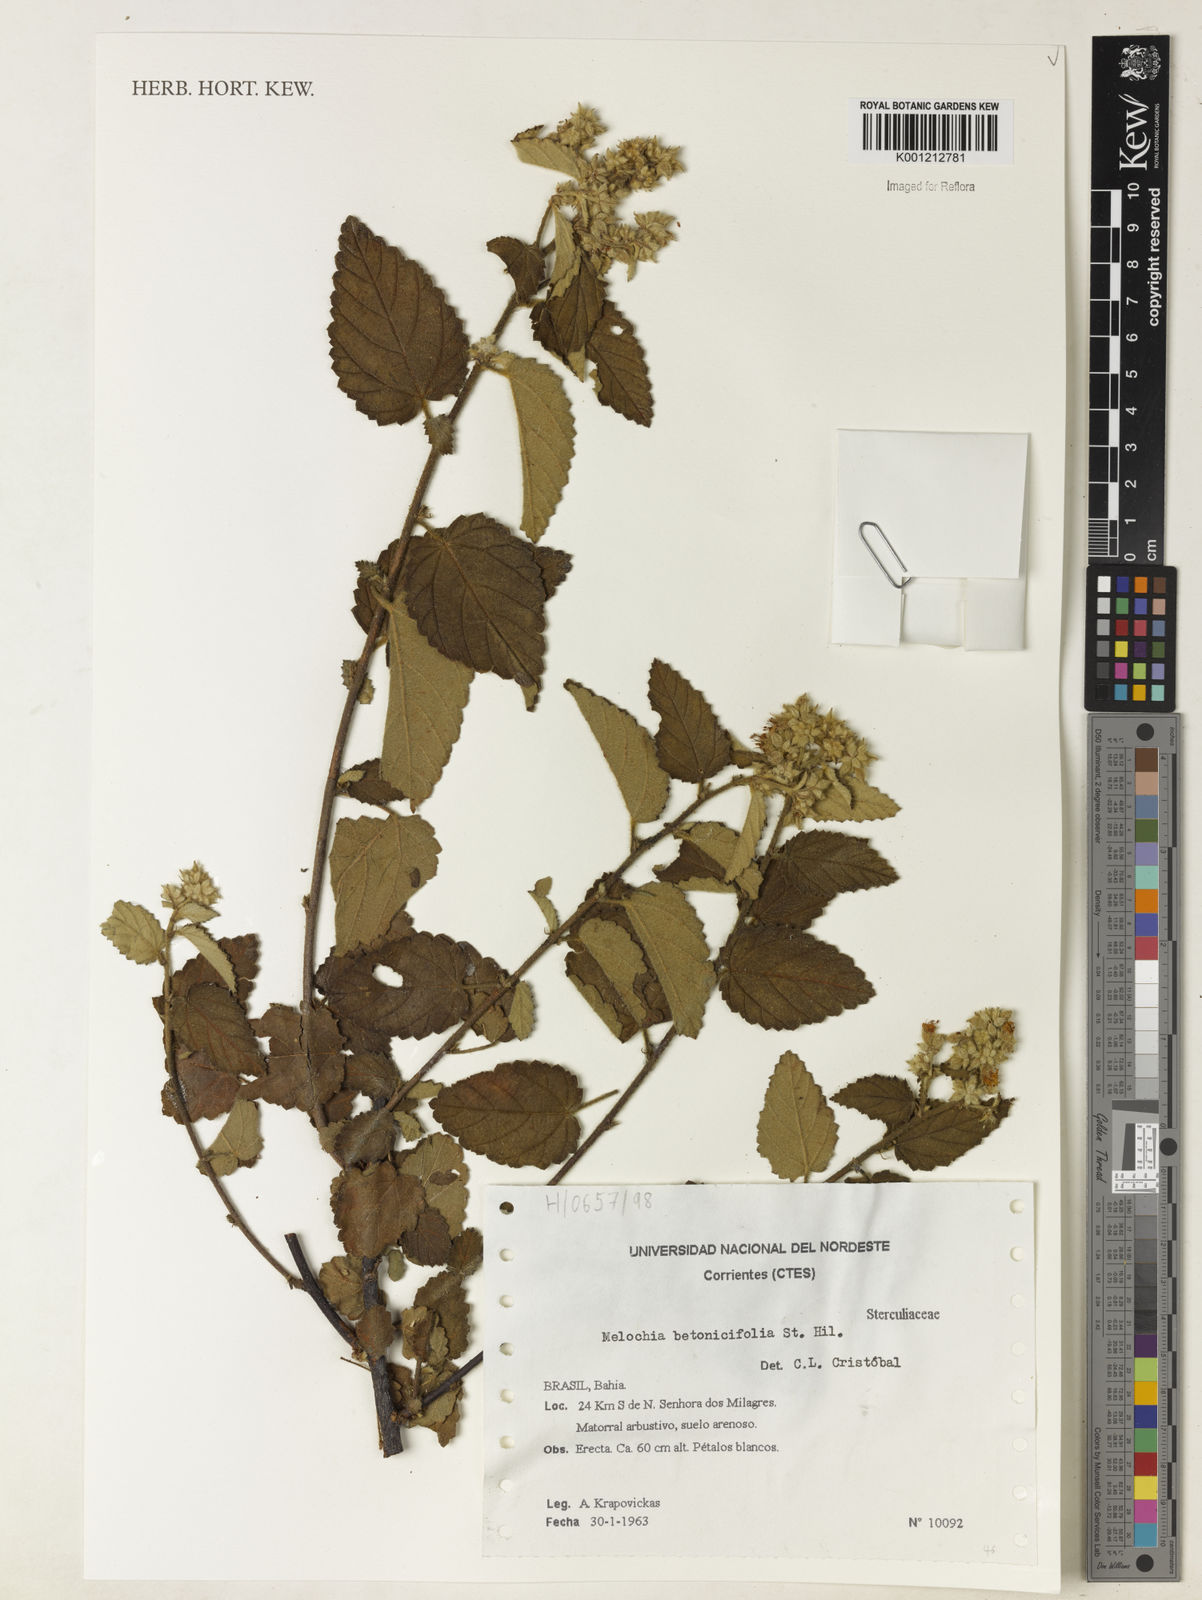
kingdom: Plantae
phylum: Tracheophyta
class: Magnoliopsida
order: Malvales
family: Malvaceae
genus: Melochia
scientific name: Melochia betonicifolia
